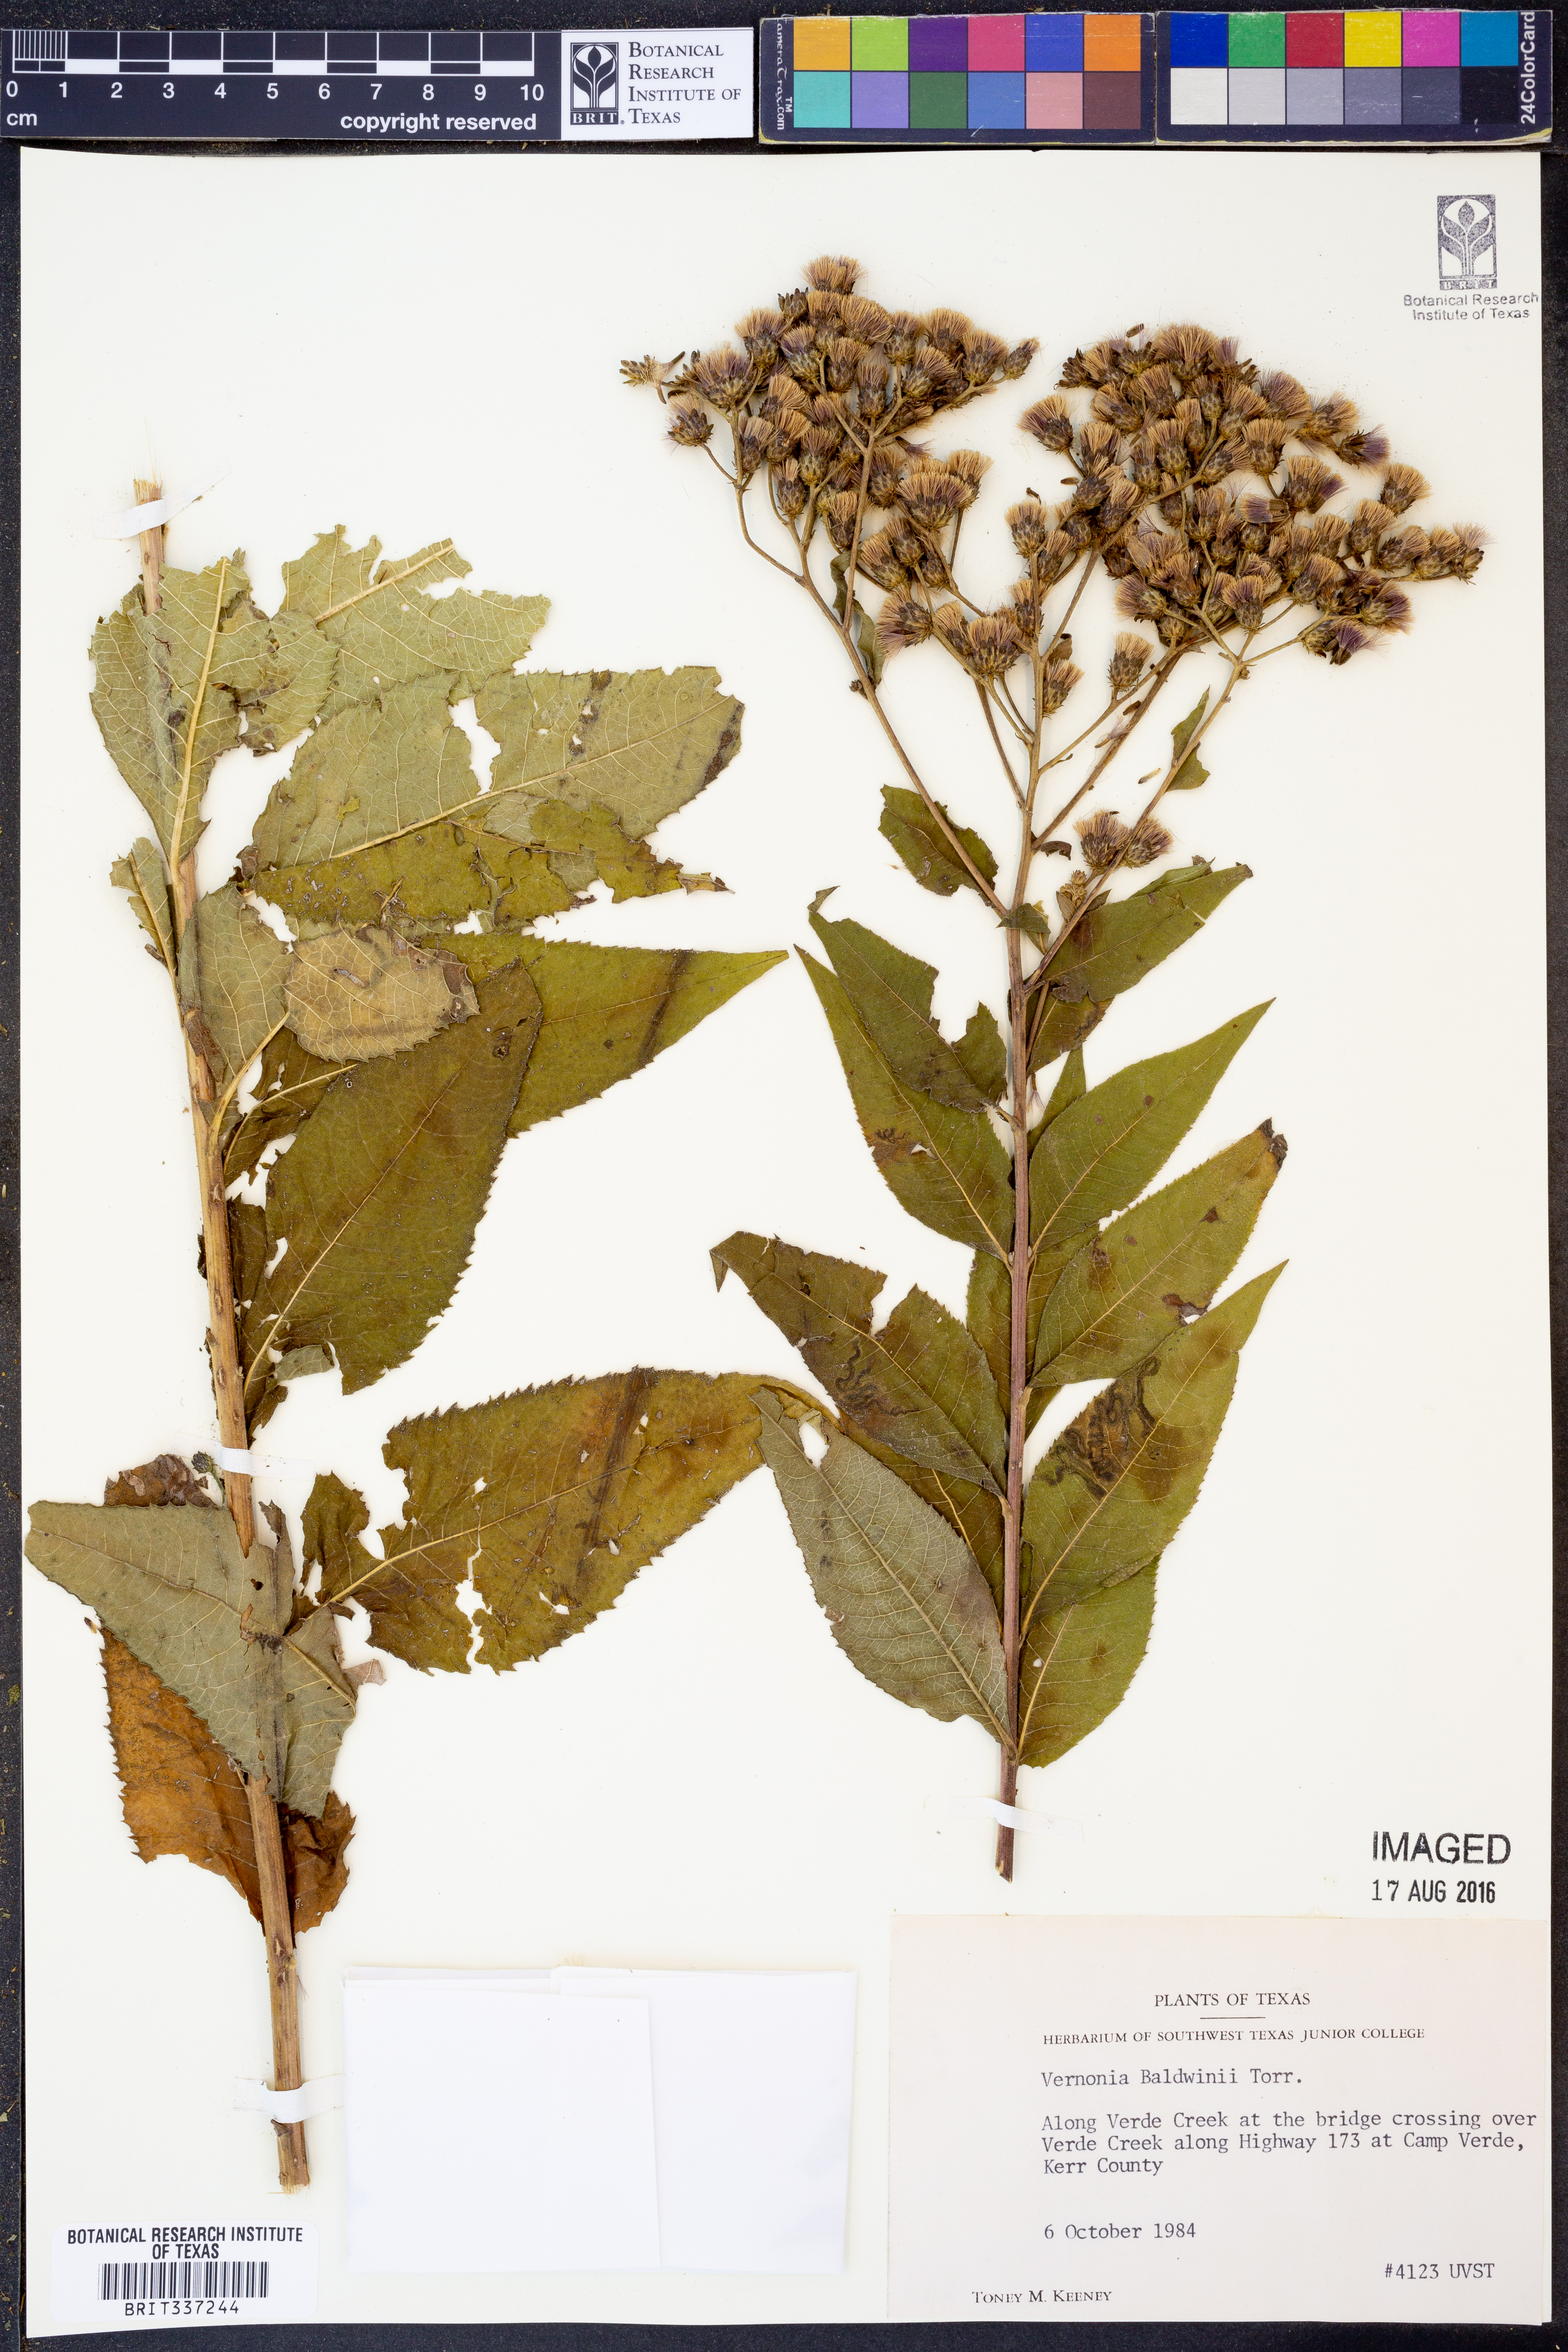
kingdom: Plantae
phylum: Tracheophyta
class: Magnoliopsida
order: Asterales
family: Asteraceae
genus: Vernonia
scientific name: Vernonia baldwinii
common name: Western ironweed
